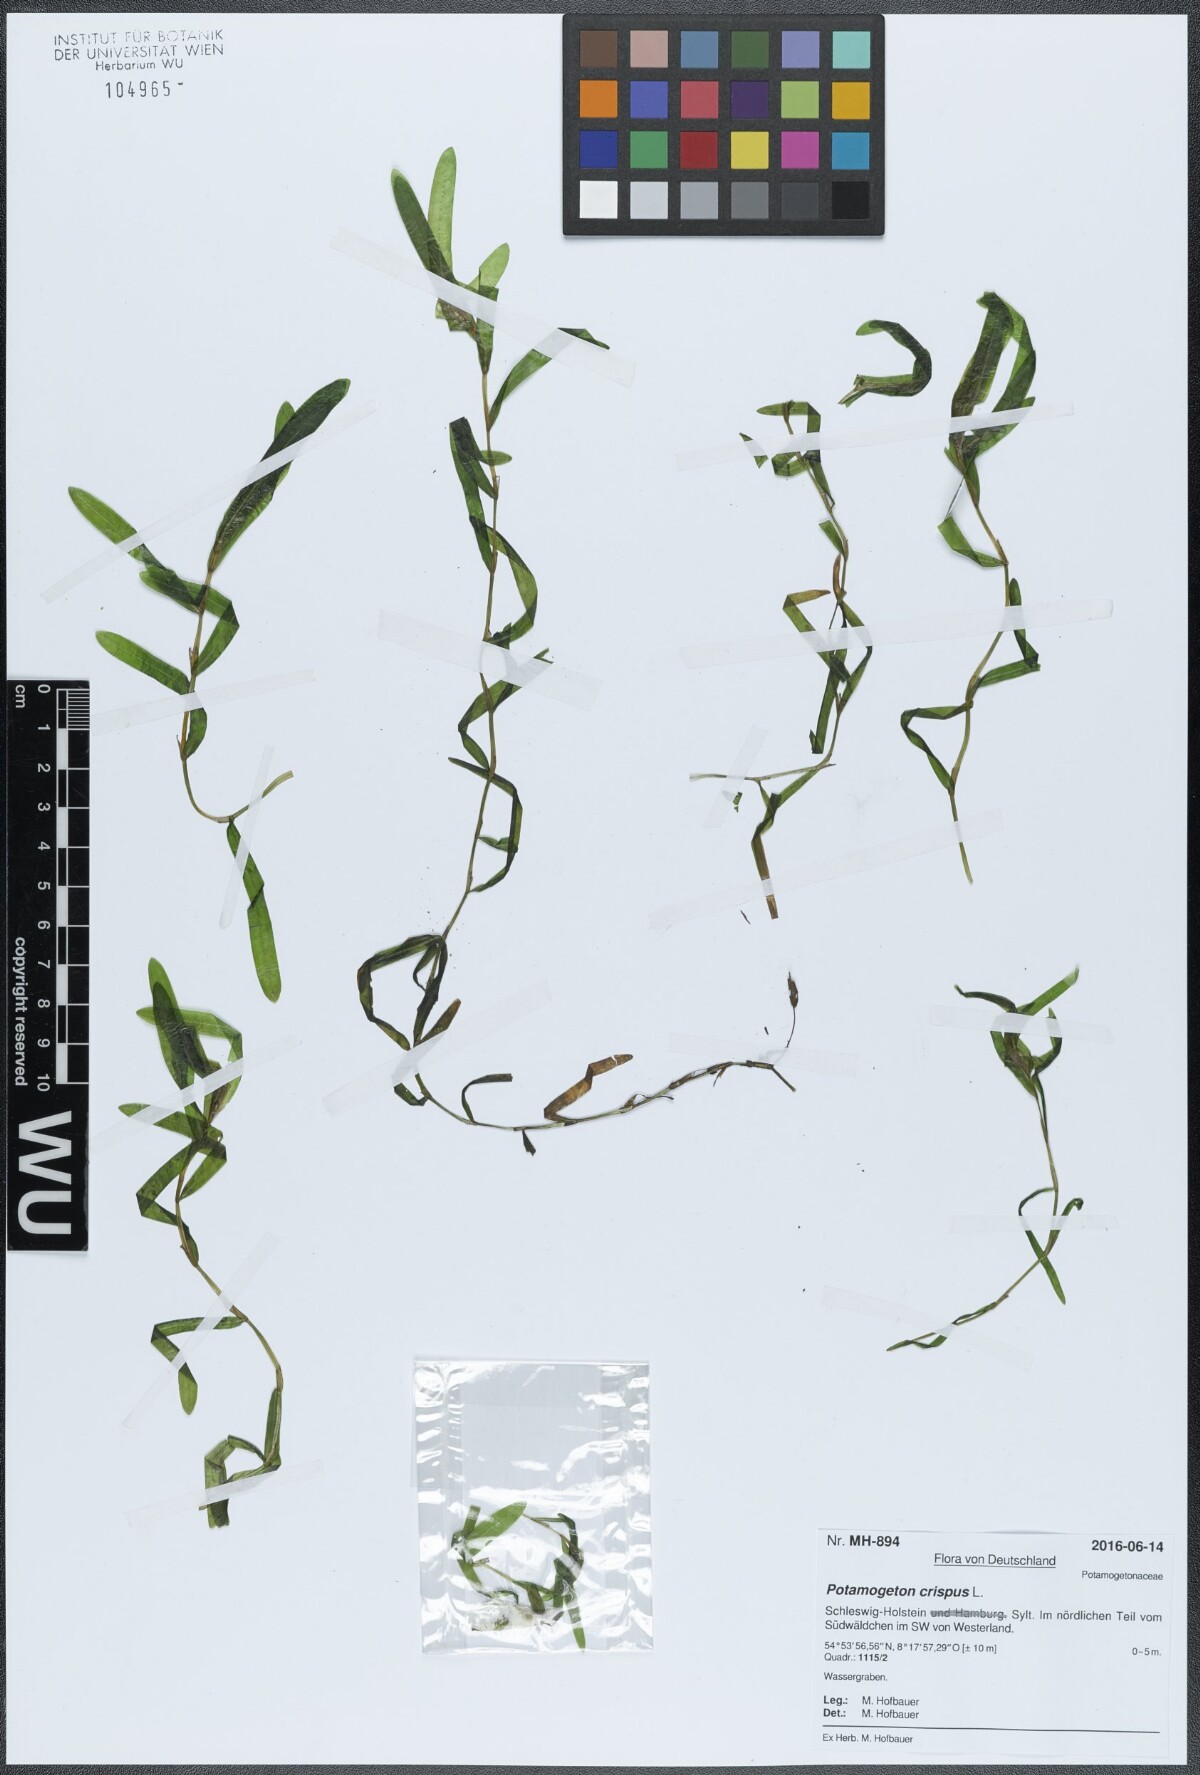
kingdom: Plantae
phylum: Tracheophyta
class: Liliopsida
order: Alismatales
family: Potamogetonaceae
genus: Potamogeton
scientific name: Potamogeton crispus
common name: Curled pondweed
